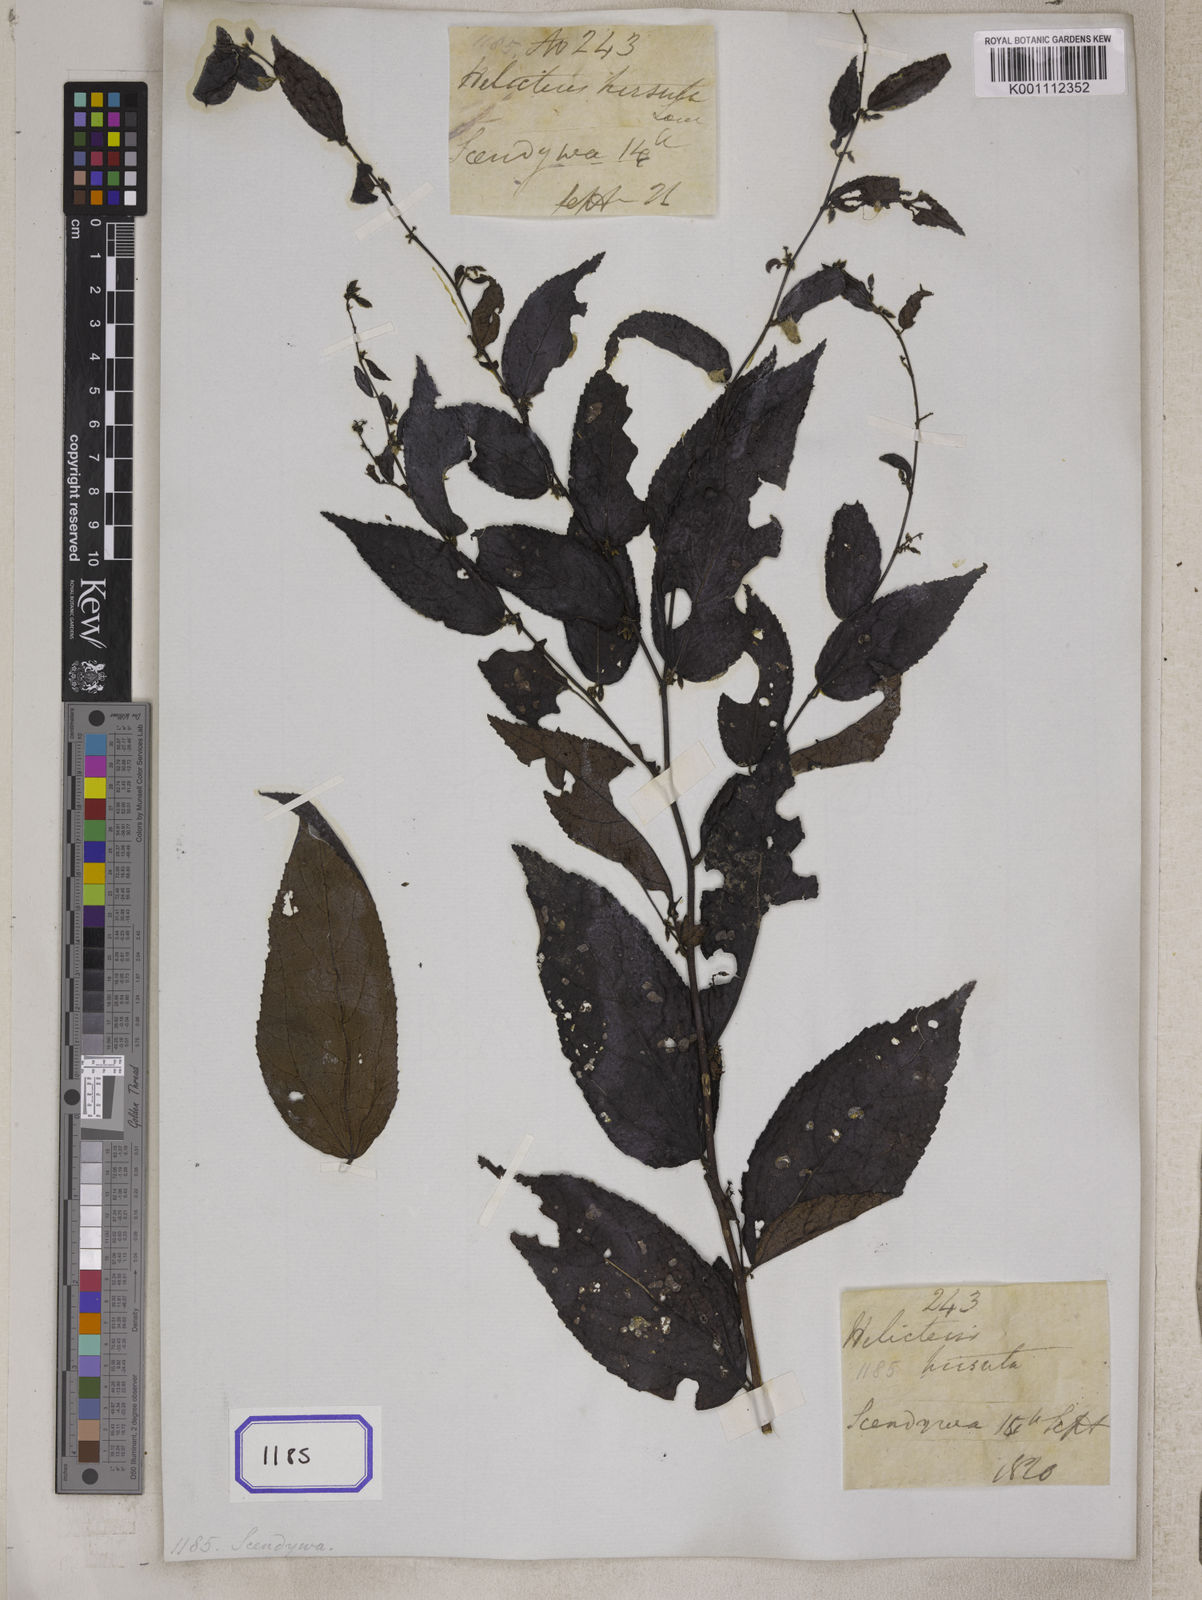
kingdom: Plantae
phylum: Tracheophyta
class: Magnoliopsida
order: Malvales
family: Malvaceae
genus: Helicteres
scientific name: Helicteres
